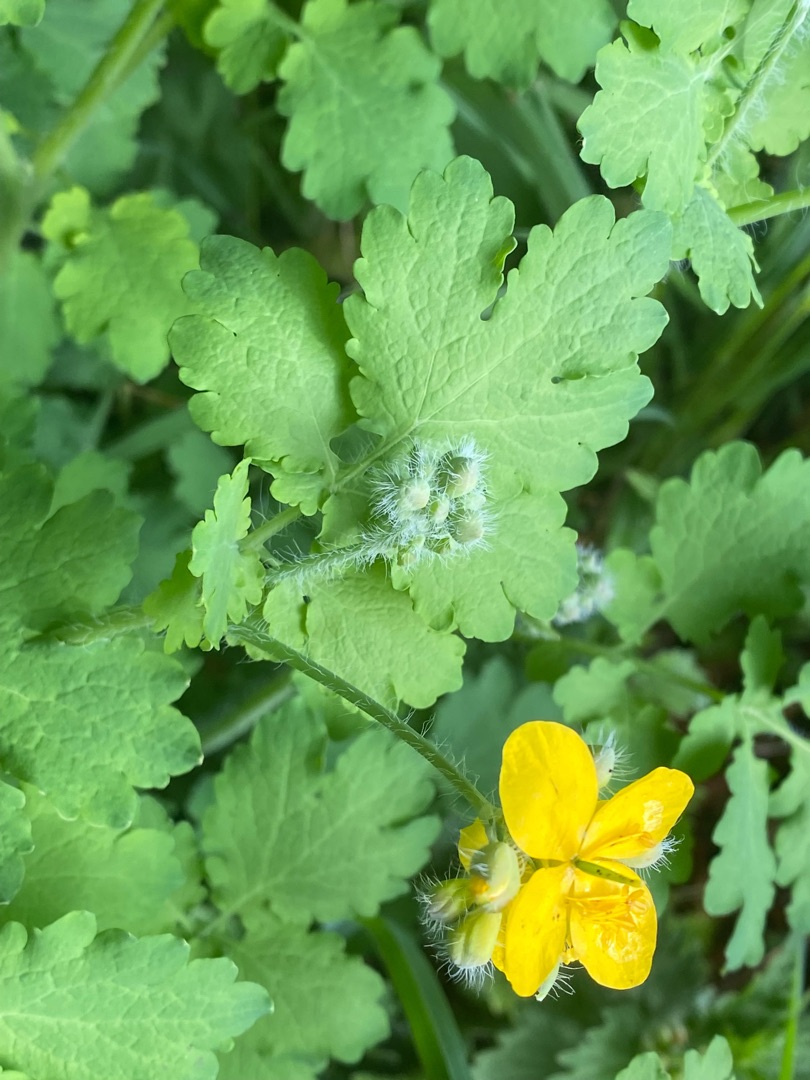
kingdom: Plantae
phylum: Tracheophyta
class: Magnoliopsida
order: Ranunculales
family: Papaveraceae
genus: Chelidonium
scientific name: Chelidonium majus
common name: Svaleurt
